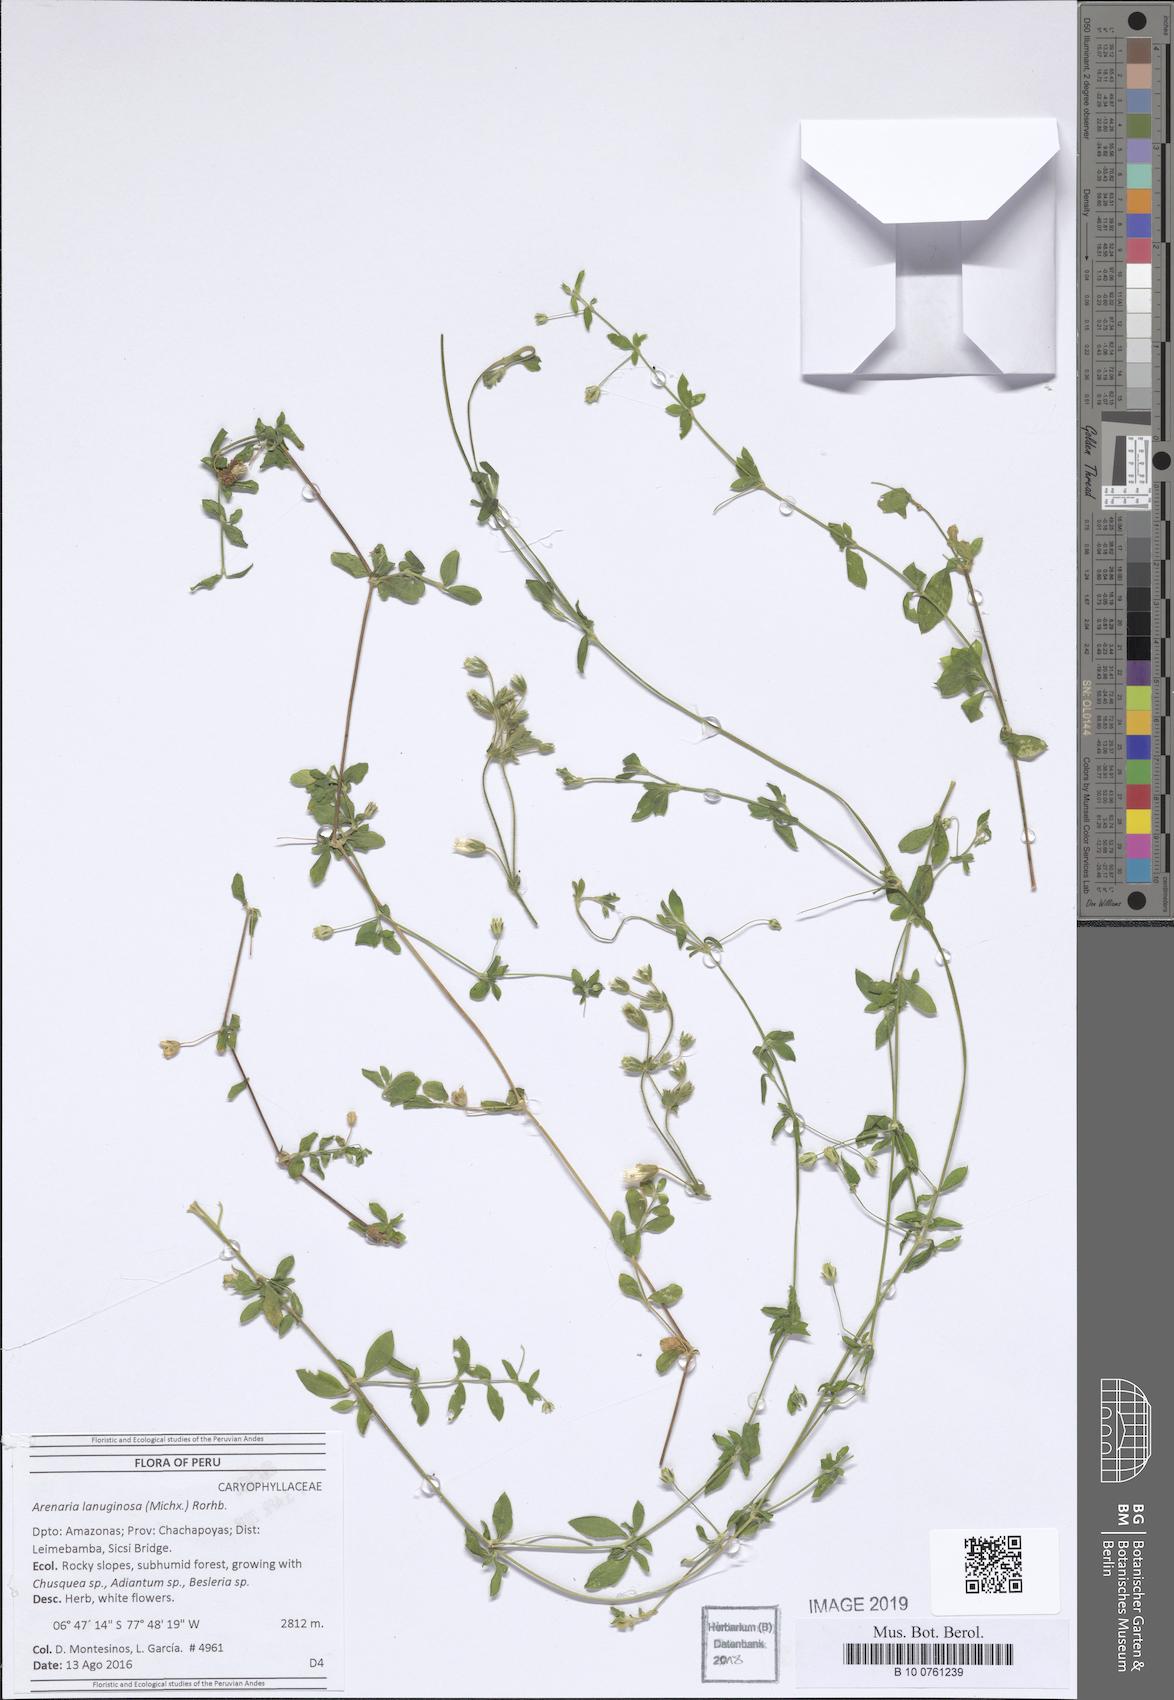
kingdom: Plantae
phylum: Tracheophyta
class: Magnoliopsida
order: Caryophyllales
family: Caryophyllaceae
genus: Arenaria
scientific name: Arenaria lanuginosa
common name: Spread sandwort
